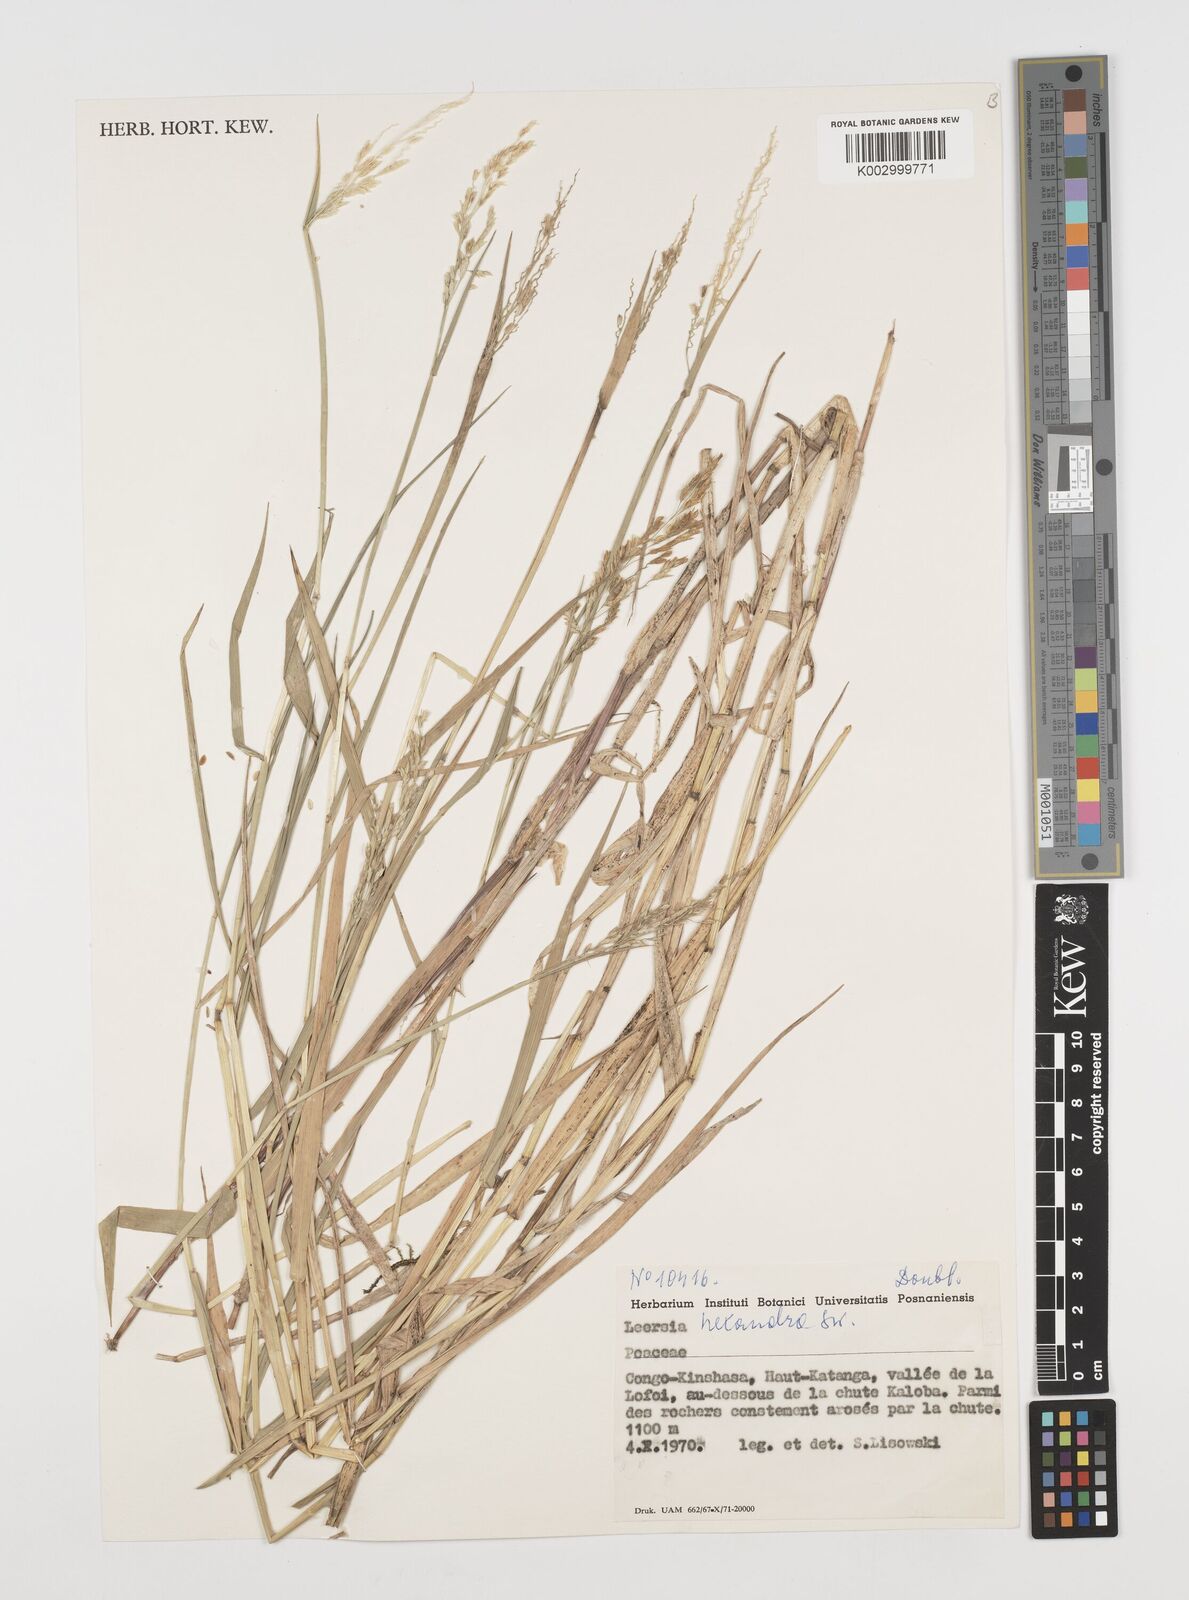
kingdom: Plantae
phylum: Tracheophyta
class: Liliopsida
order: Poales
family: Poaceae
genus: Leersia
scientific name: Leersia hexandra
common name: Southern cut grass
